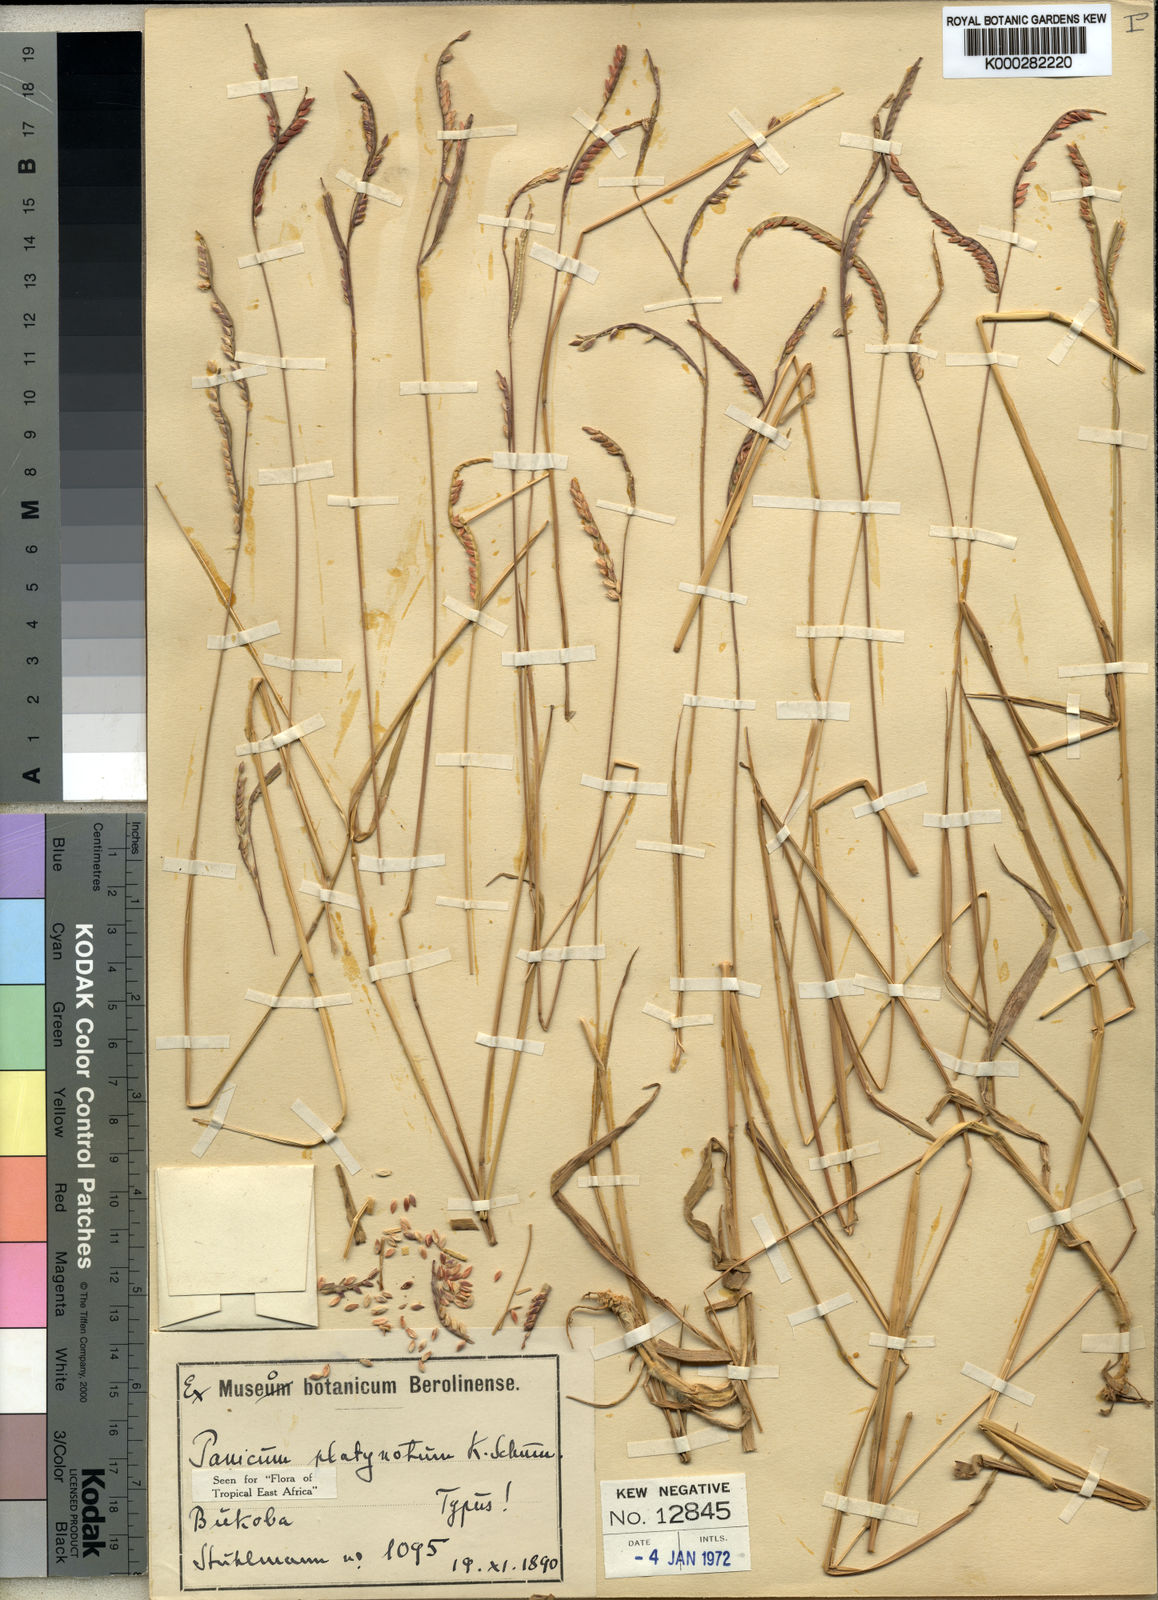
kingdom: Plantae
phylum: Tracheophyta
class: Liliopsida
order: Poales
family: Poaceae
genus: Urochloa
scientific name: Urochloa platynota
